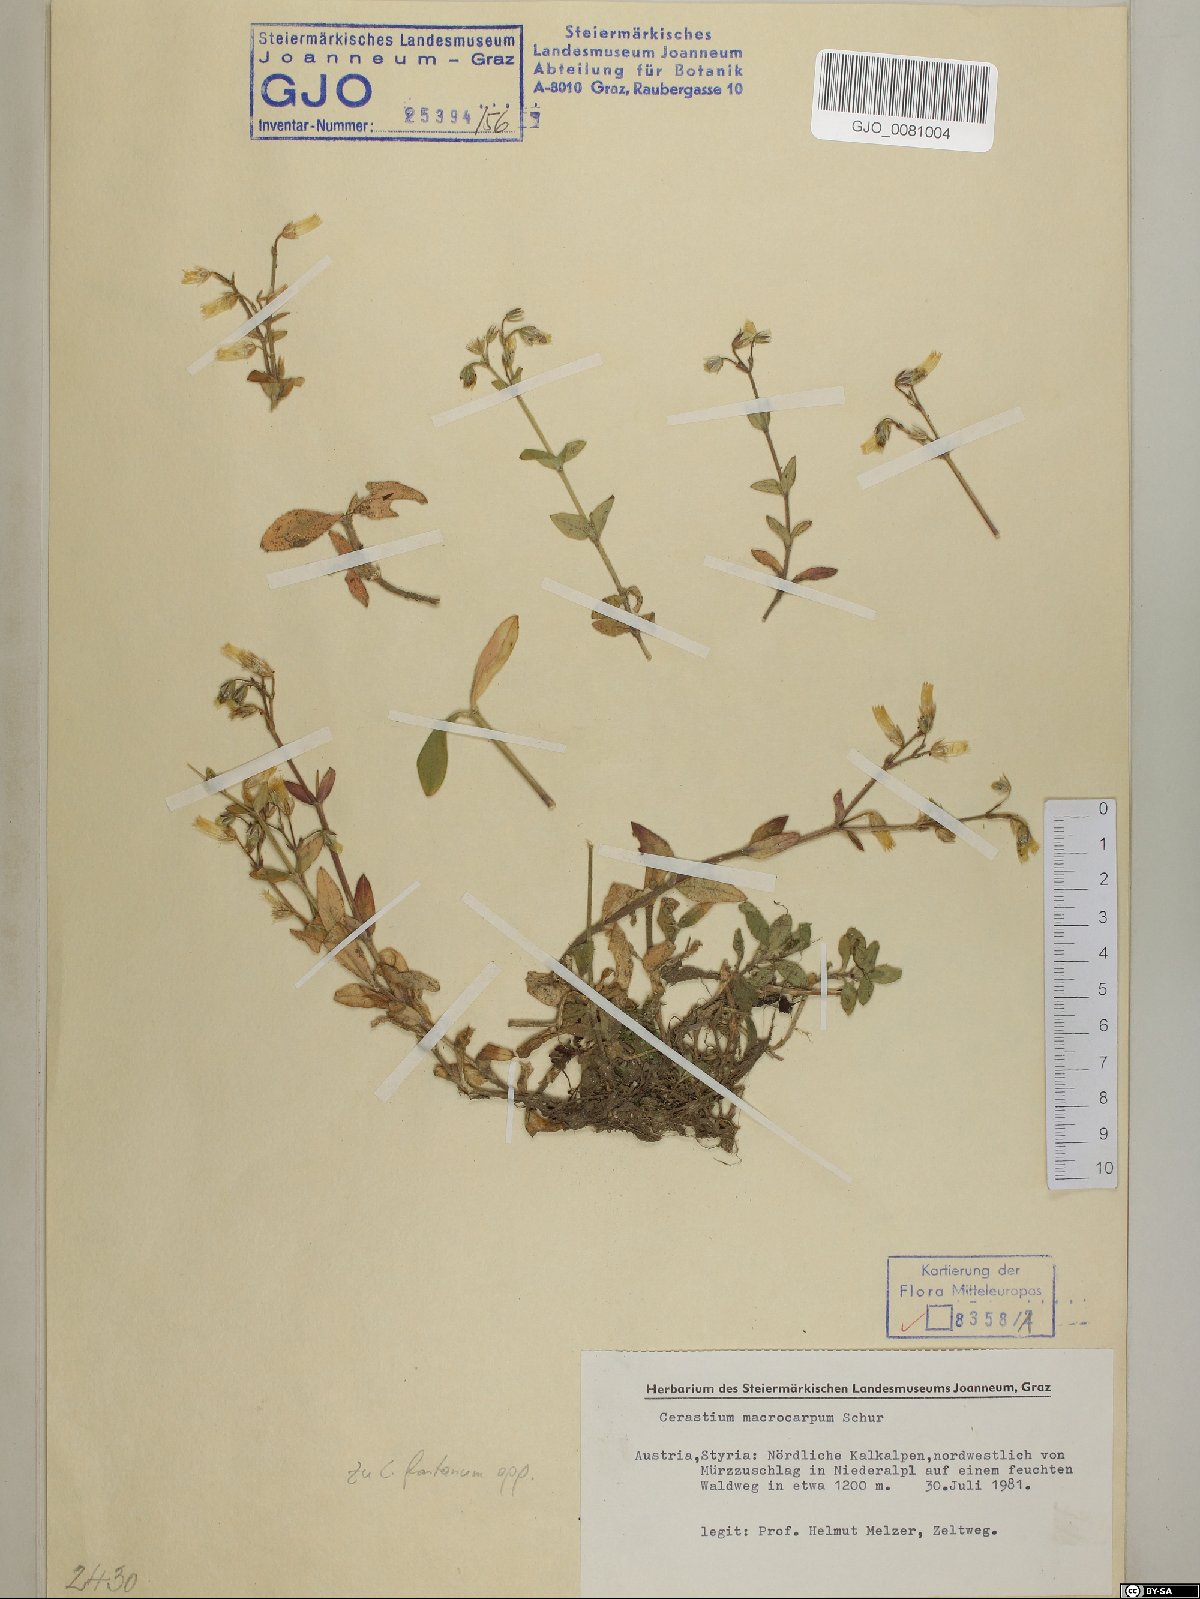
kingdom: Plantae
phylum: Tracheophyta
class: Magnoliopsida
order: Caryophyllales
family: Caryophyllaceae
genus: Cerastium
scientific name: Cerastium lucorum
